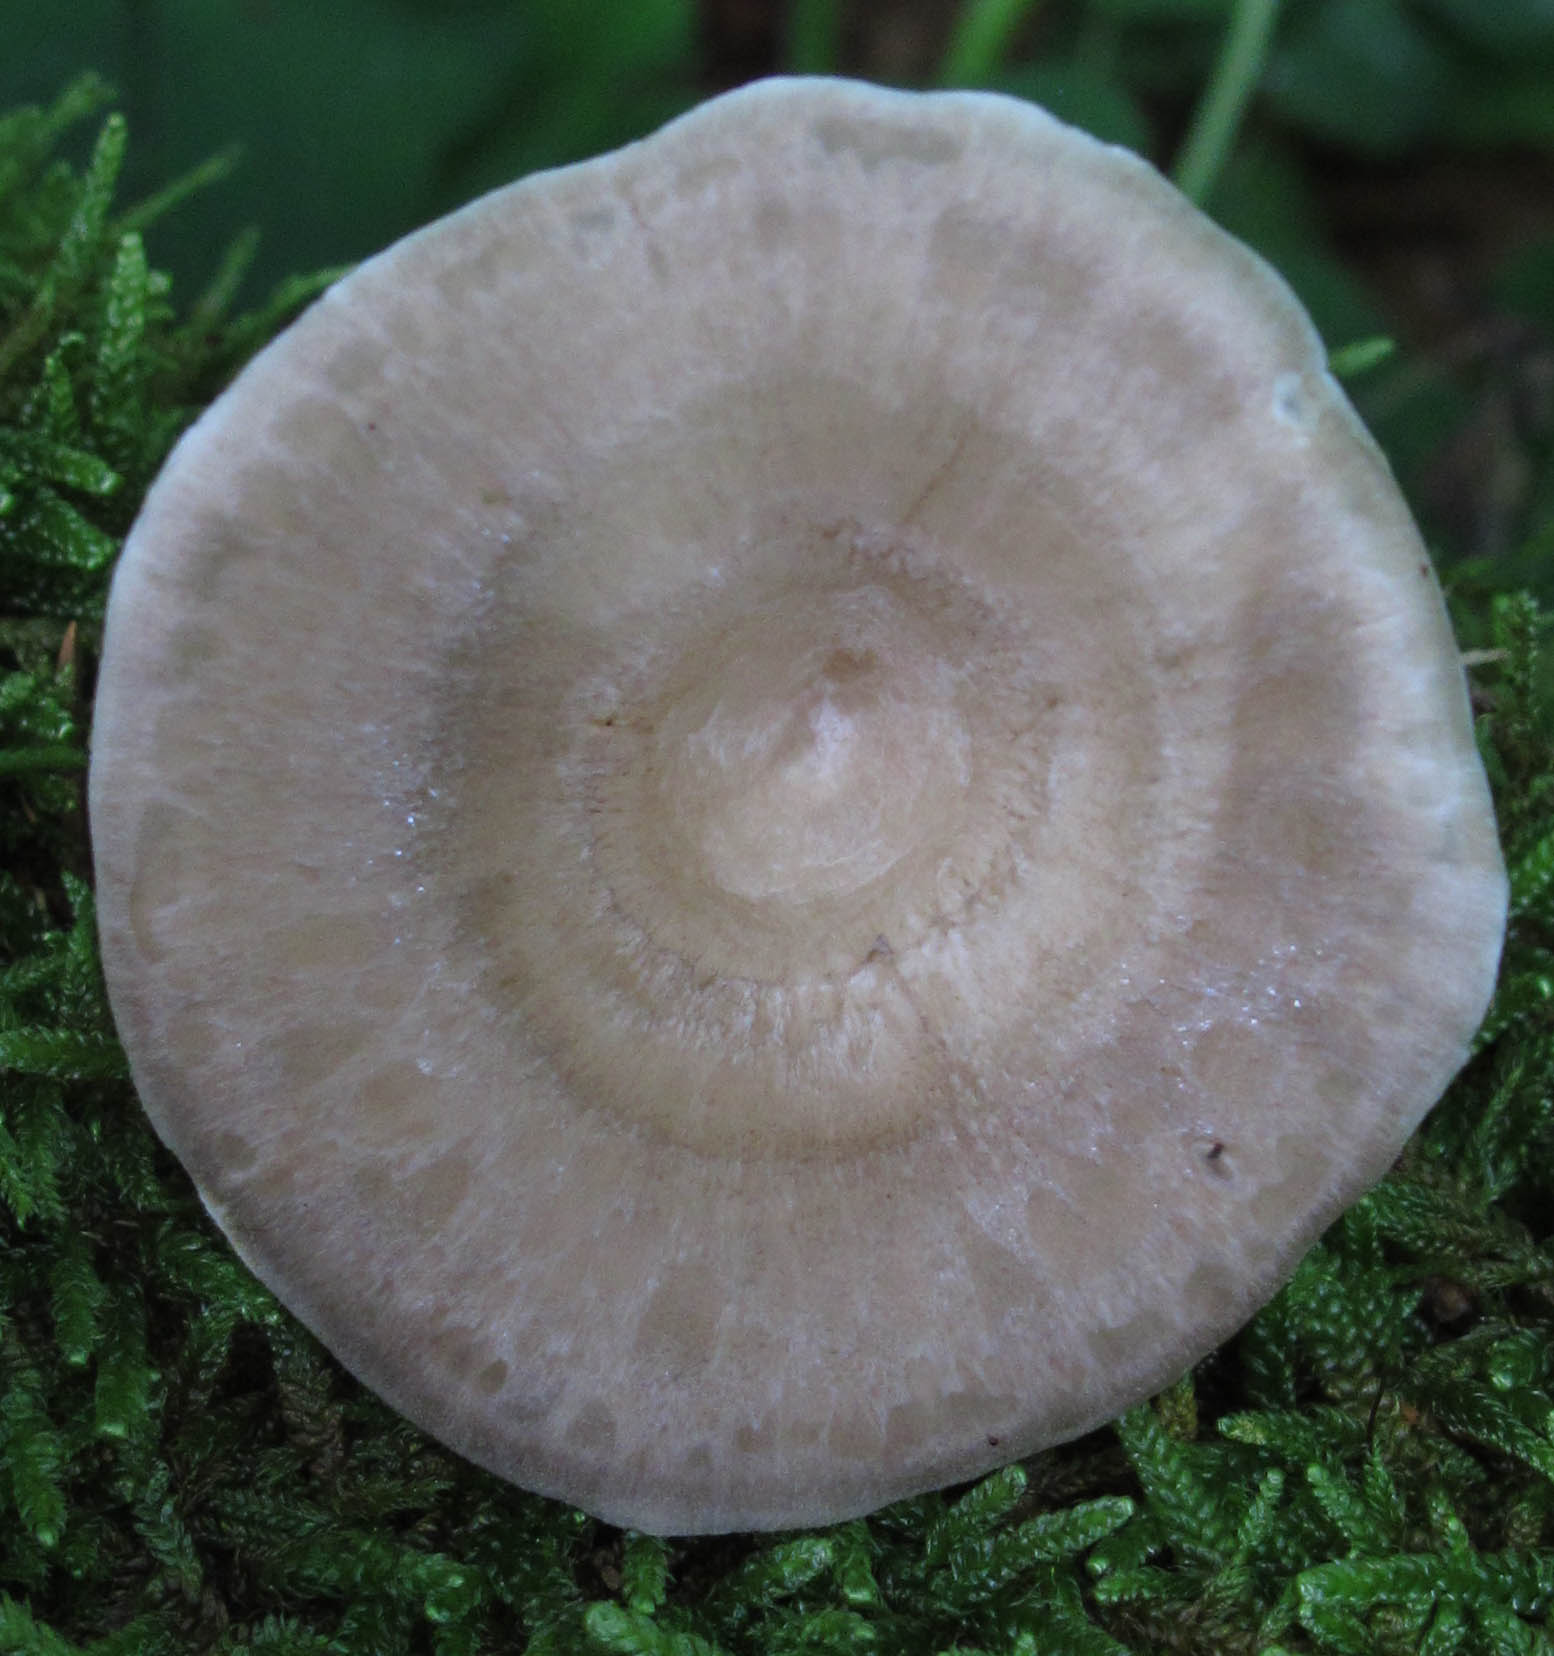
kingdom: Fungi
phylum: Basidiomycota
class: Agaricomycetes
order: Polyporales
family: Polyporaceae
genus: Picipes
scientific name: Picipes melanopus
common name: sortfodet stilkporesvamp
